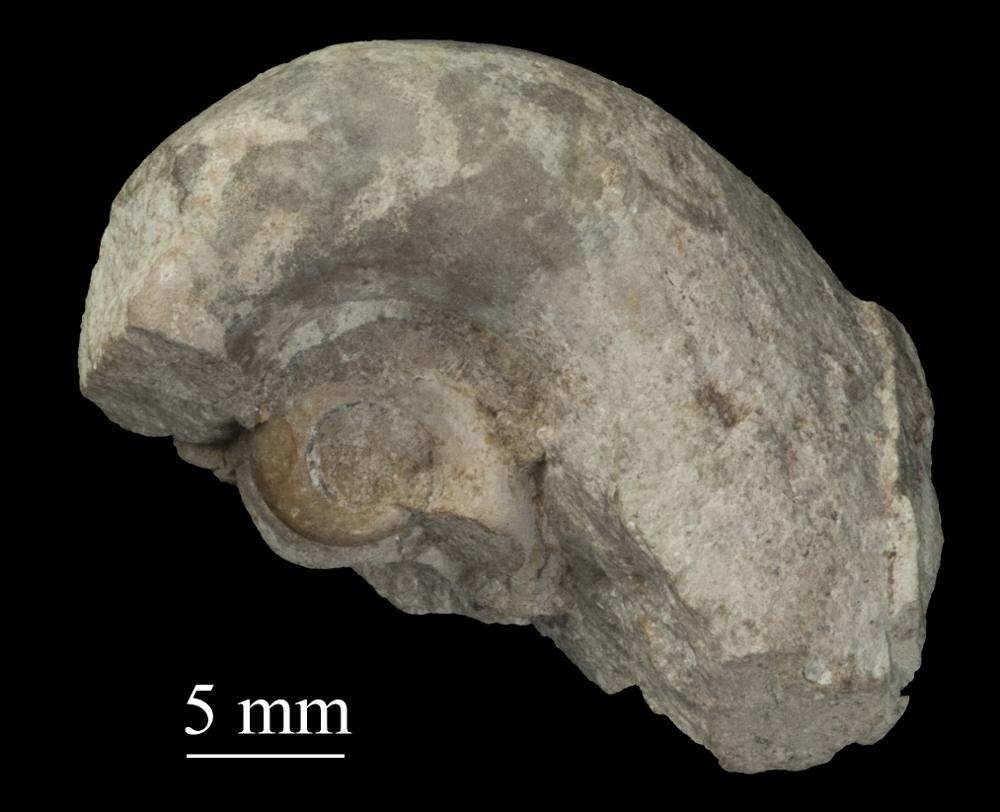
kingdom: Animalia
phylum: Mollusca
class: Gastropoda
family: Bucaniidae
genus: Bucania
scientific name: Bucania cornu
